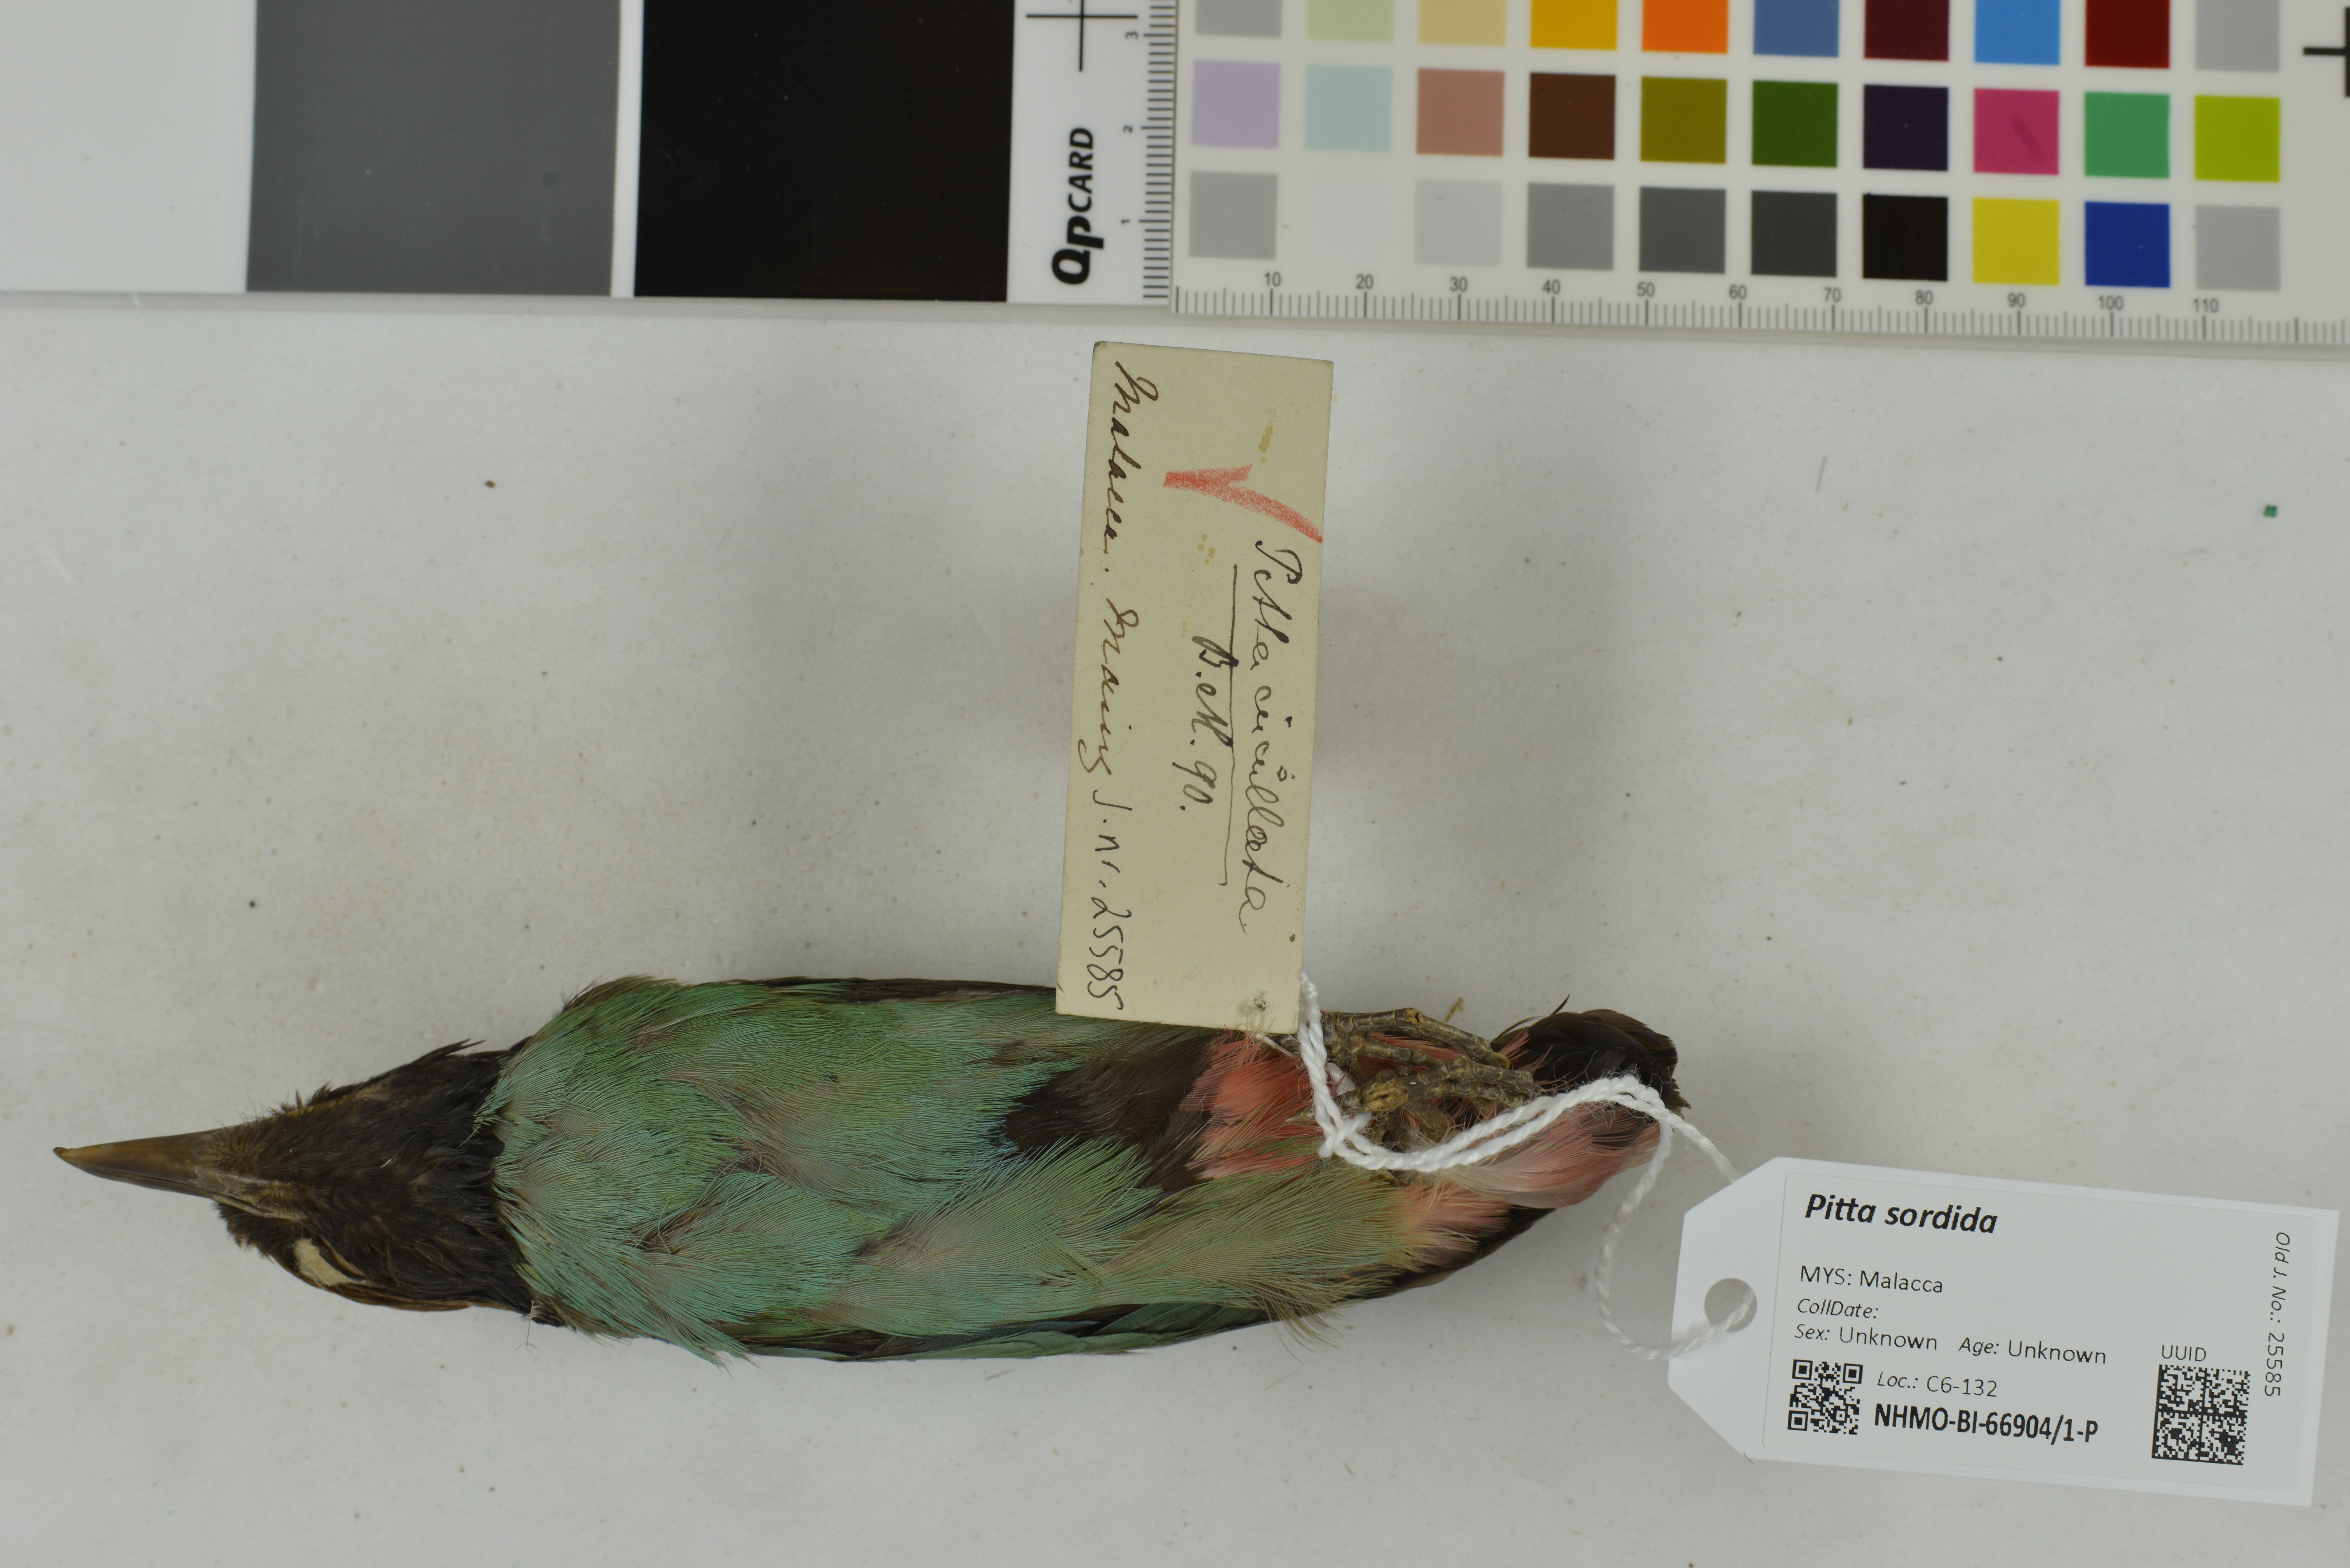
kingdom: Animalia
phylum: Chordata
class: Aves
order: Passeriformes
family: Pittidae
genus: Pitta
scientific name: Pitta sordida
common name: Hooded pitta
